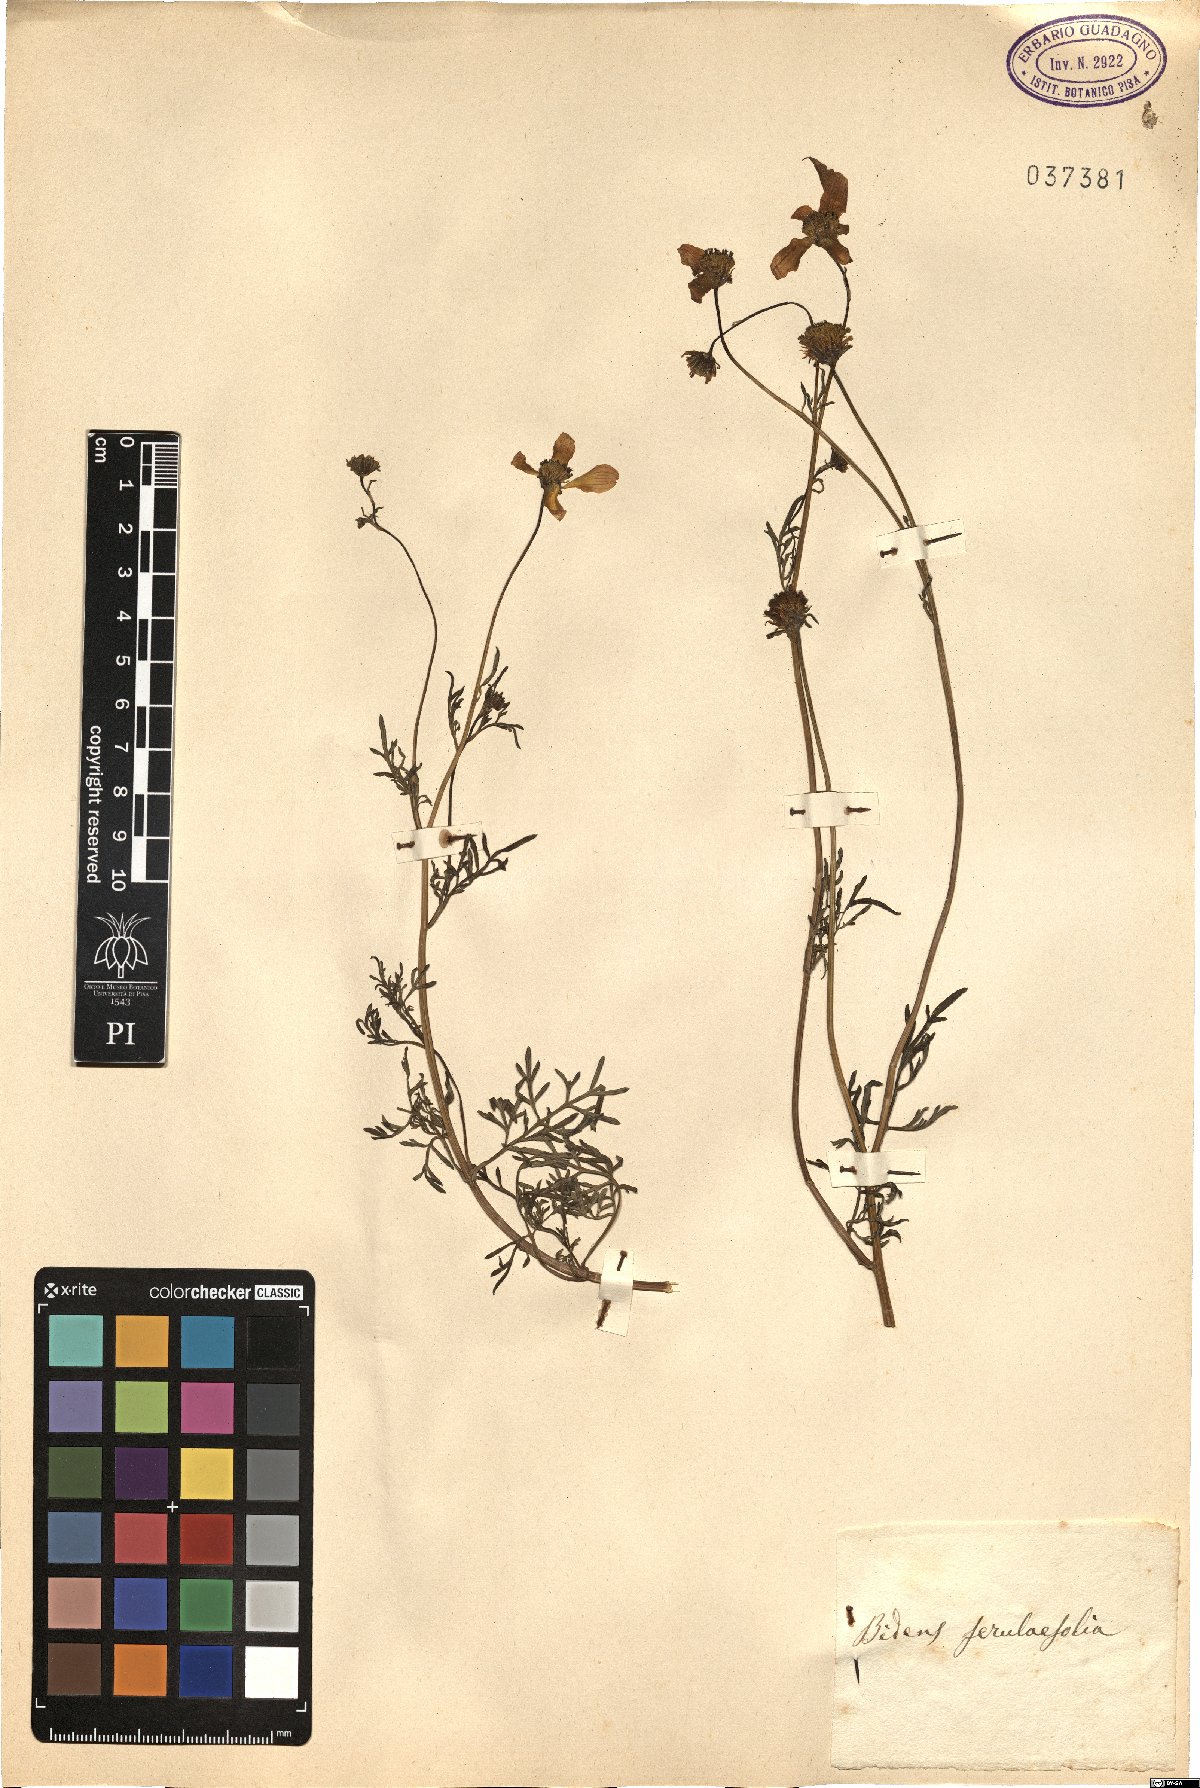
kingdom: Plantae
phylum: Tracheophyta
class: Magnoliopsida
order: Asterales
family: Asteraceae
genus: Bidens
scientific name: Bidens aurea
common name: Arizona beggar-ticks
